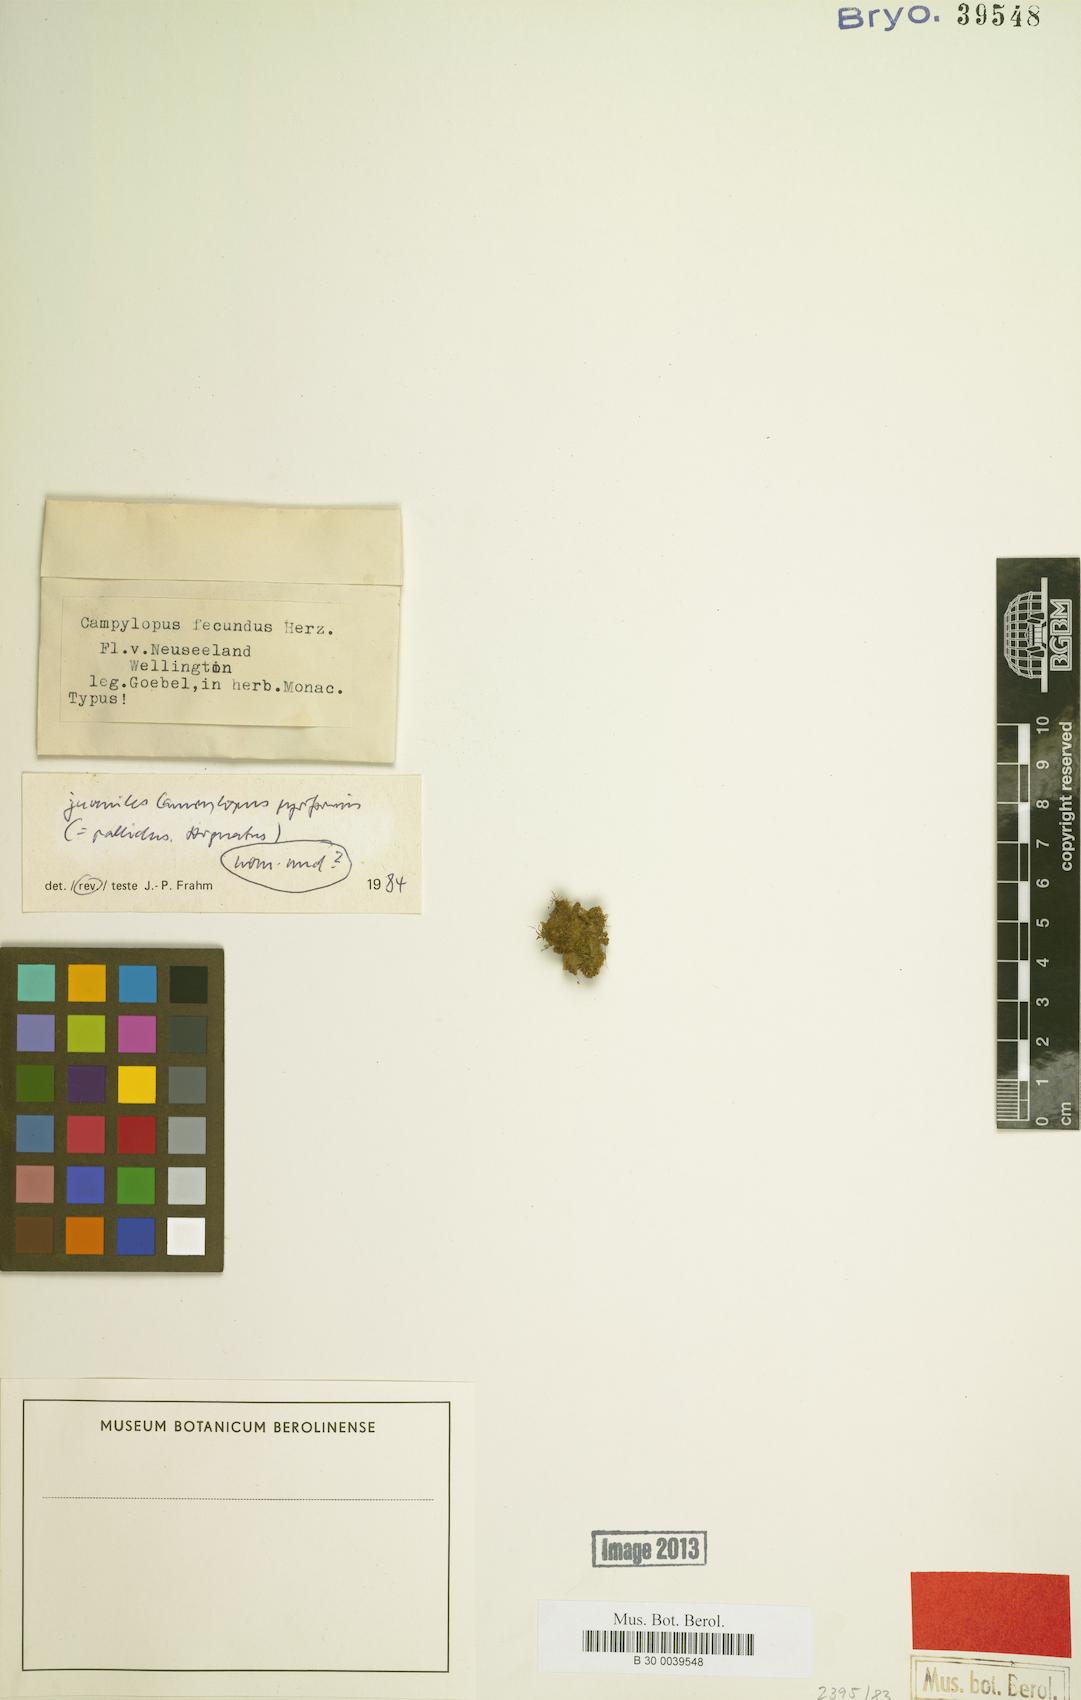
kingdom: Plantae
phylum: Bryophyta
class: Bryopsida
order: Dicranales
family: Dicranaceae
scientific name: Dicranaceae
